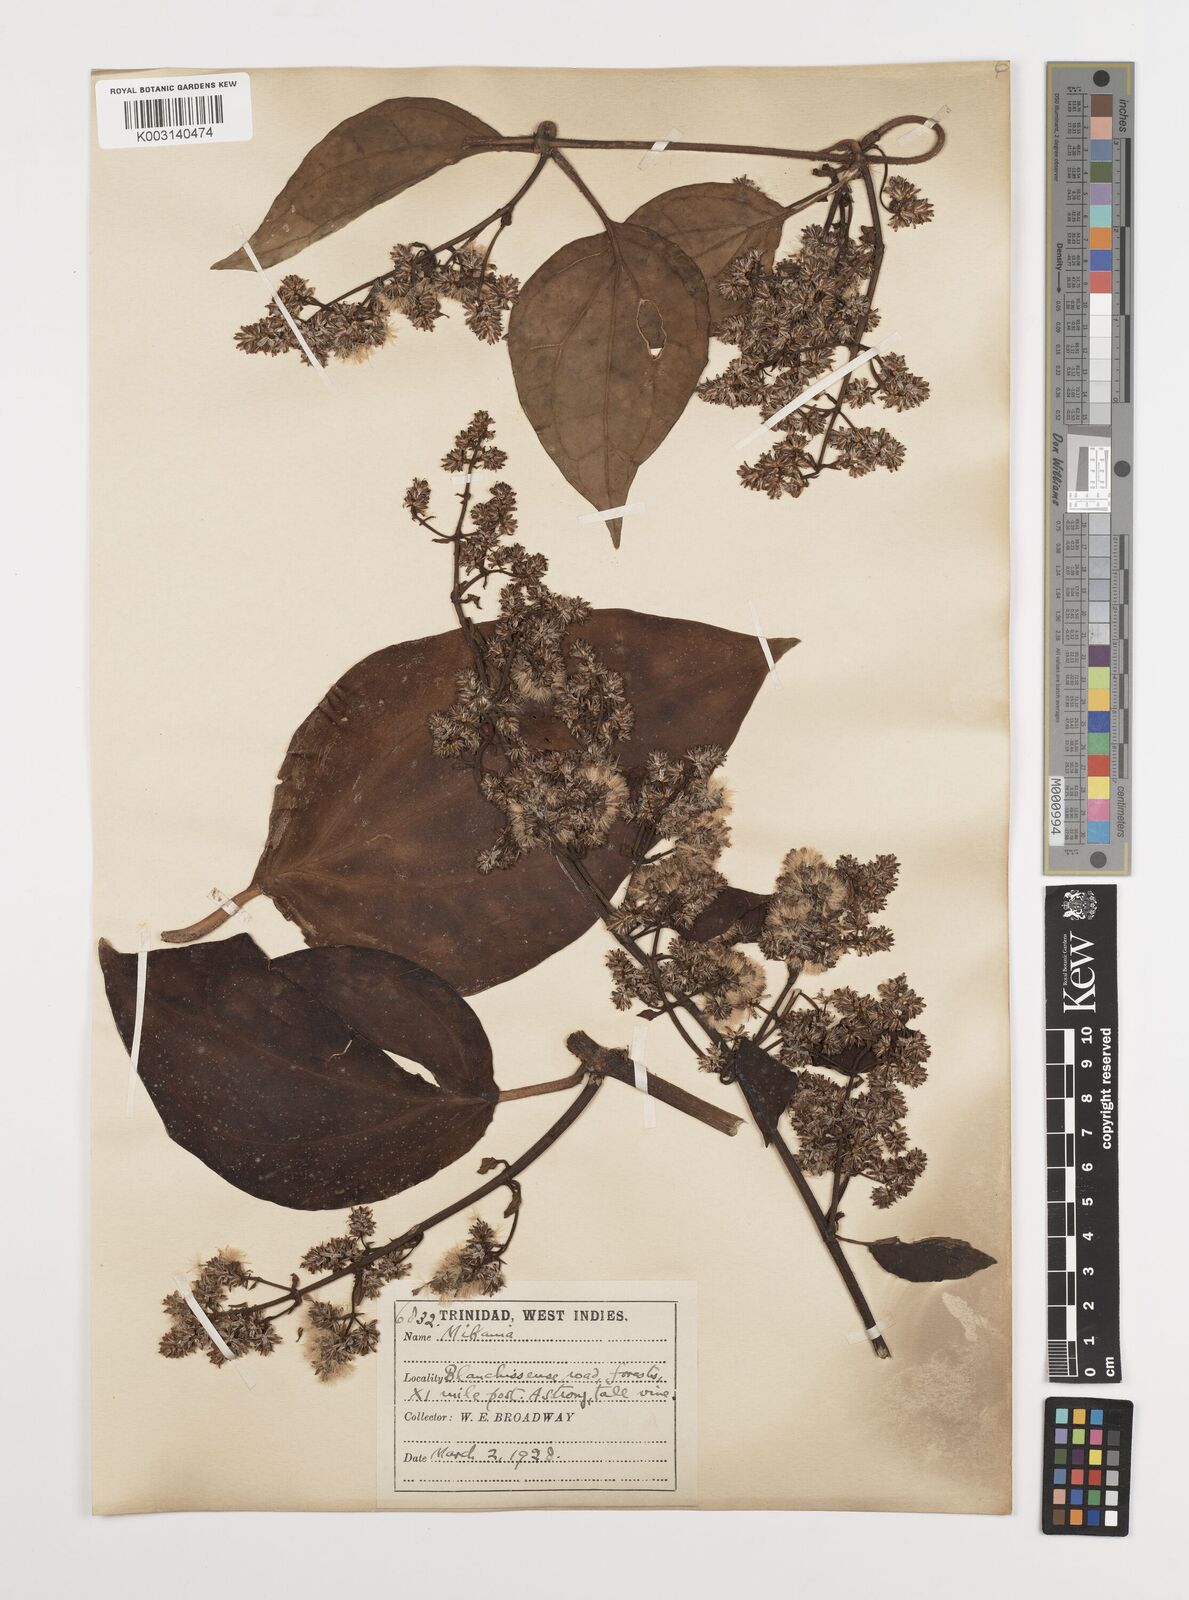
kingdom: Plantae
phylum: Tracheophyta
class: Magnoliopsida
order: Asterales
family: Asteraceae
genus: Mikania
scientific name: Mikania hookeriana
